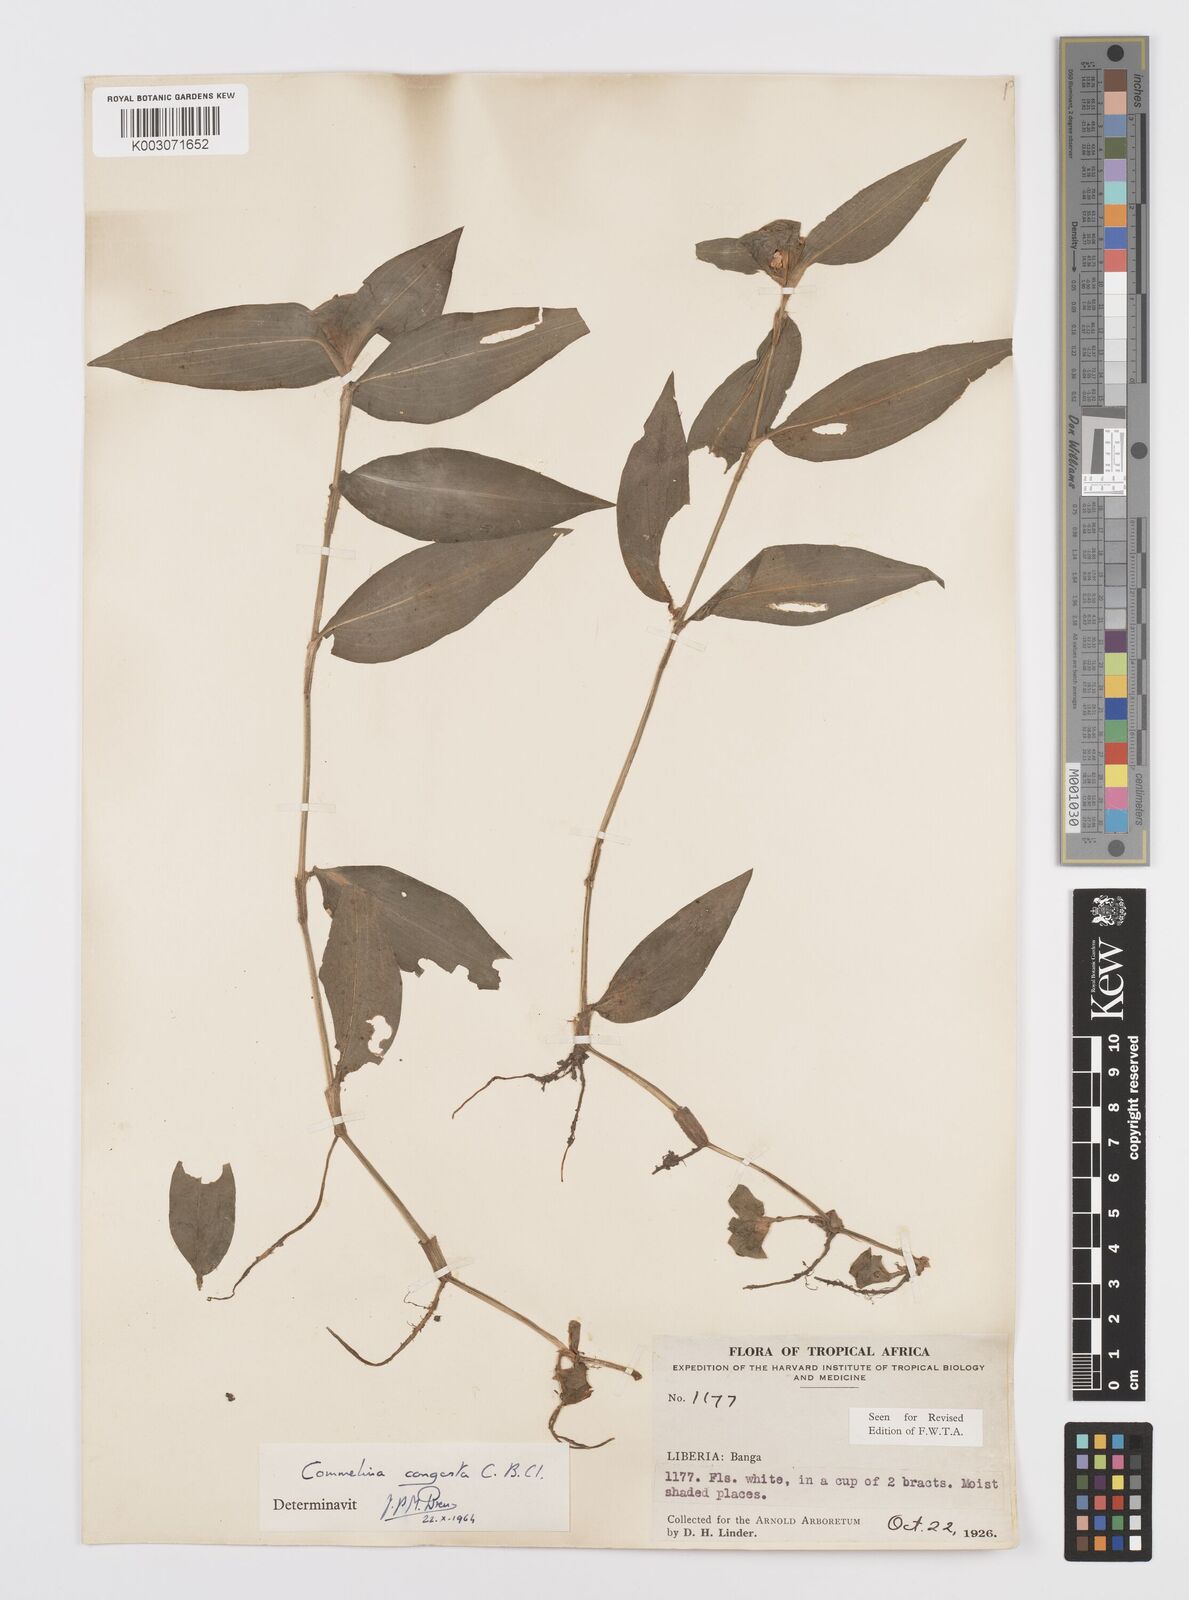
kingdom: Plantae
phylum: Tracheophyta
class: Liliopsida
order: Commelinales
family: Commelinaceae
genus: Commelina
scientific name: Commelina congesta
